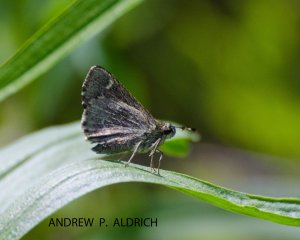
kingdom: Animalia
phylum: Arthropoda
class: Insecta
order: Lepidoptera
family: Hesperiidae
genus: Mastor
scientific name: Mastor hegon
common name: Pepper and Salt Skipper
